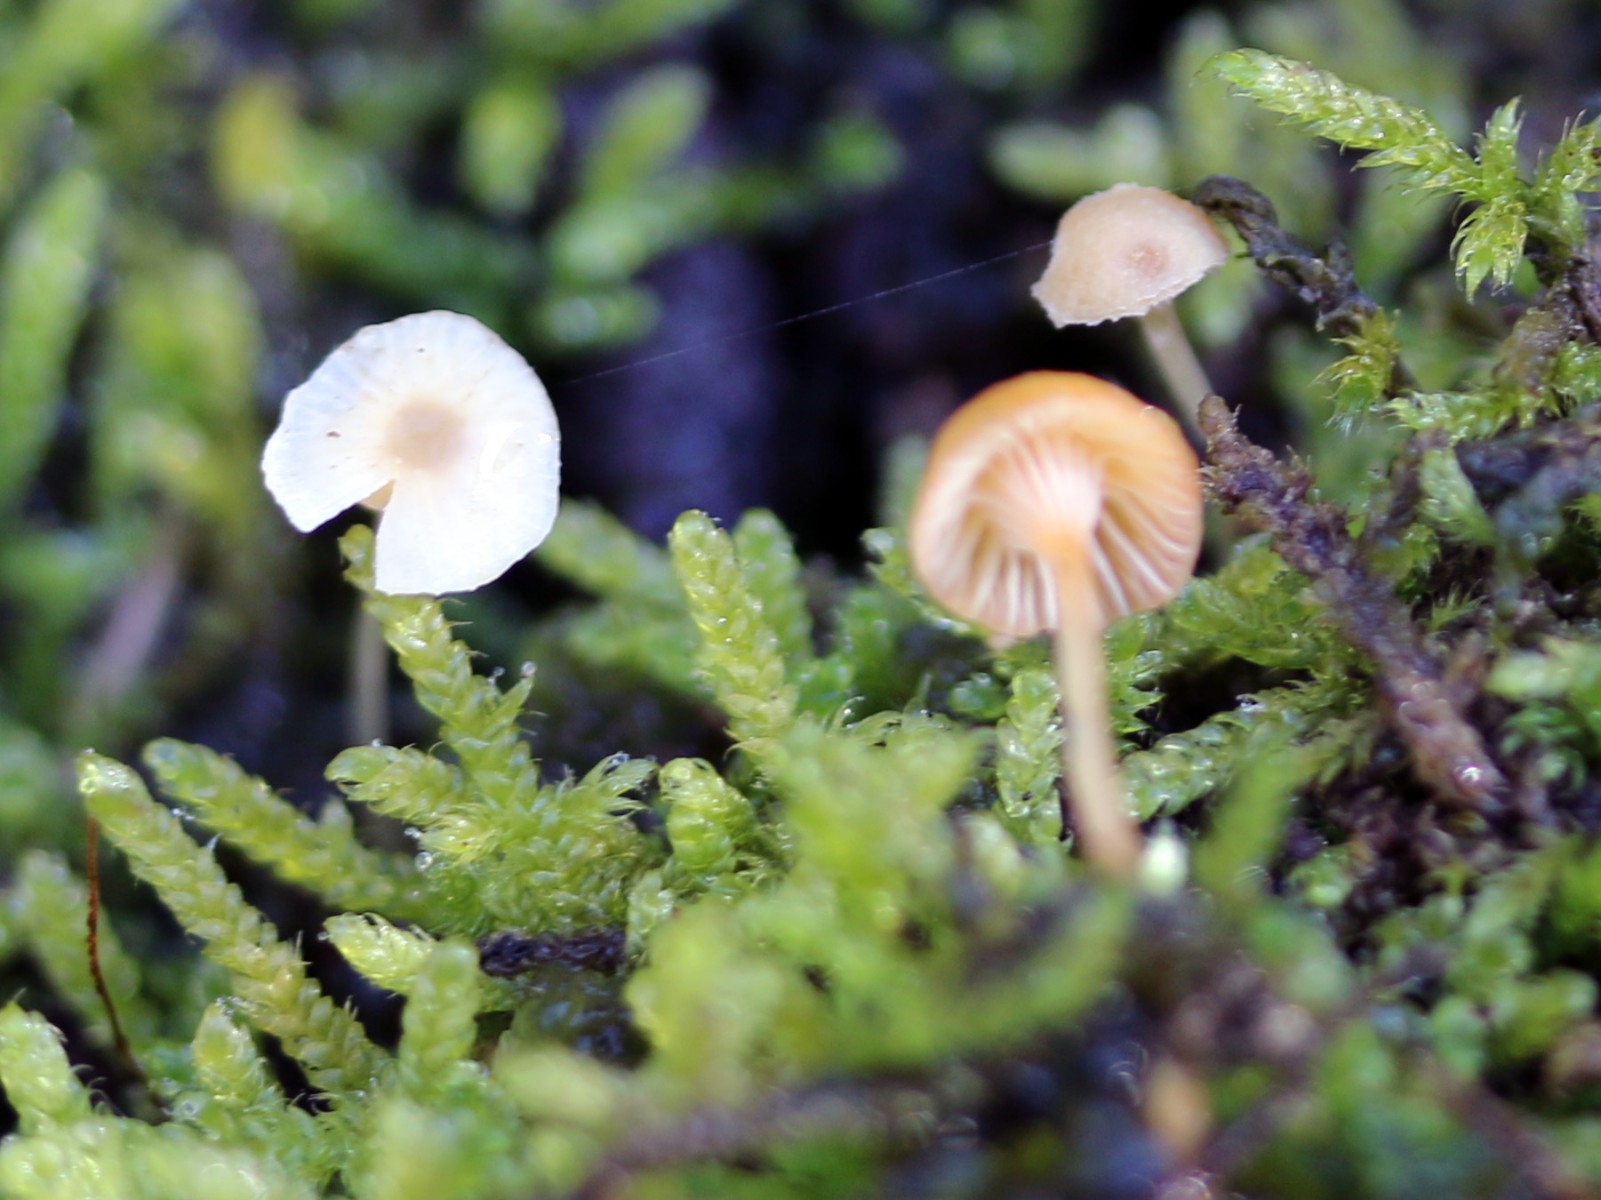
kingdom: Fungi
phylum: Basidiomycota
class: Agaricomycetes
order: Hymenochaetales
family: Rickenellaceae
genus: Rickenella
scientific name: Rickenella fibula
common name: orange mosnavlehat
